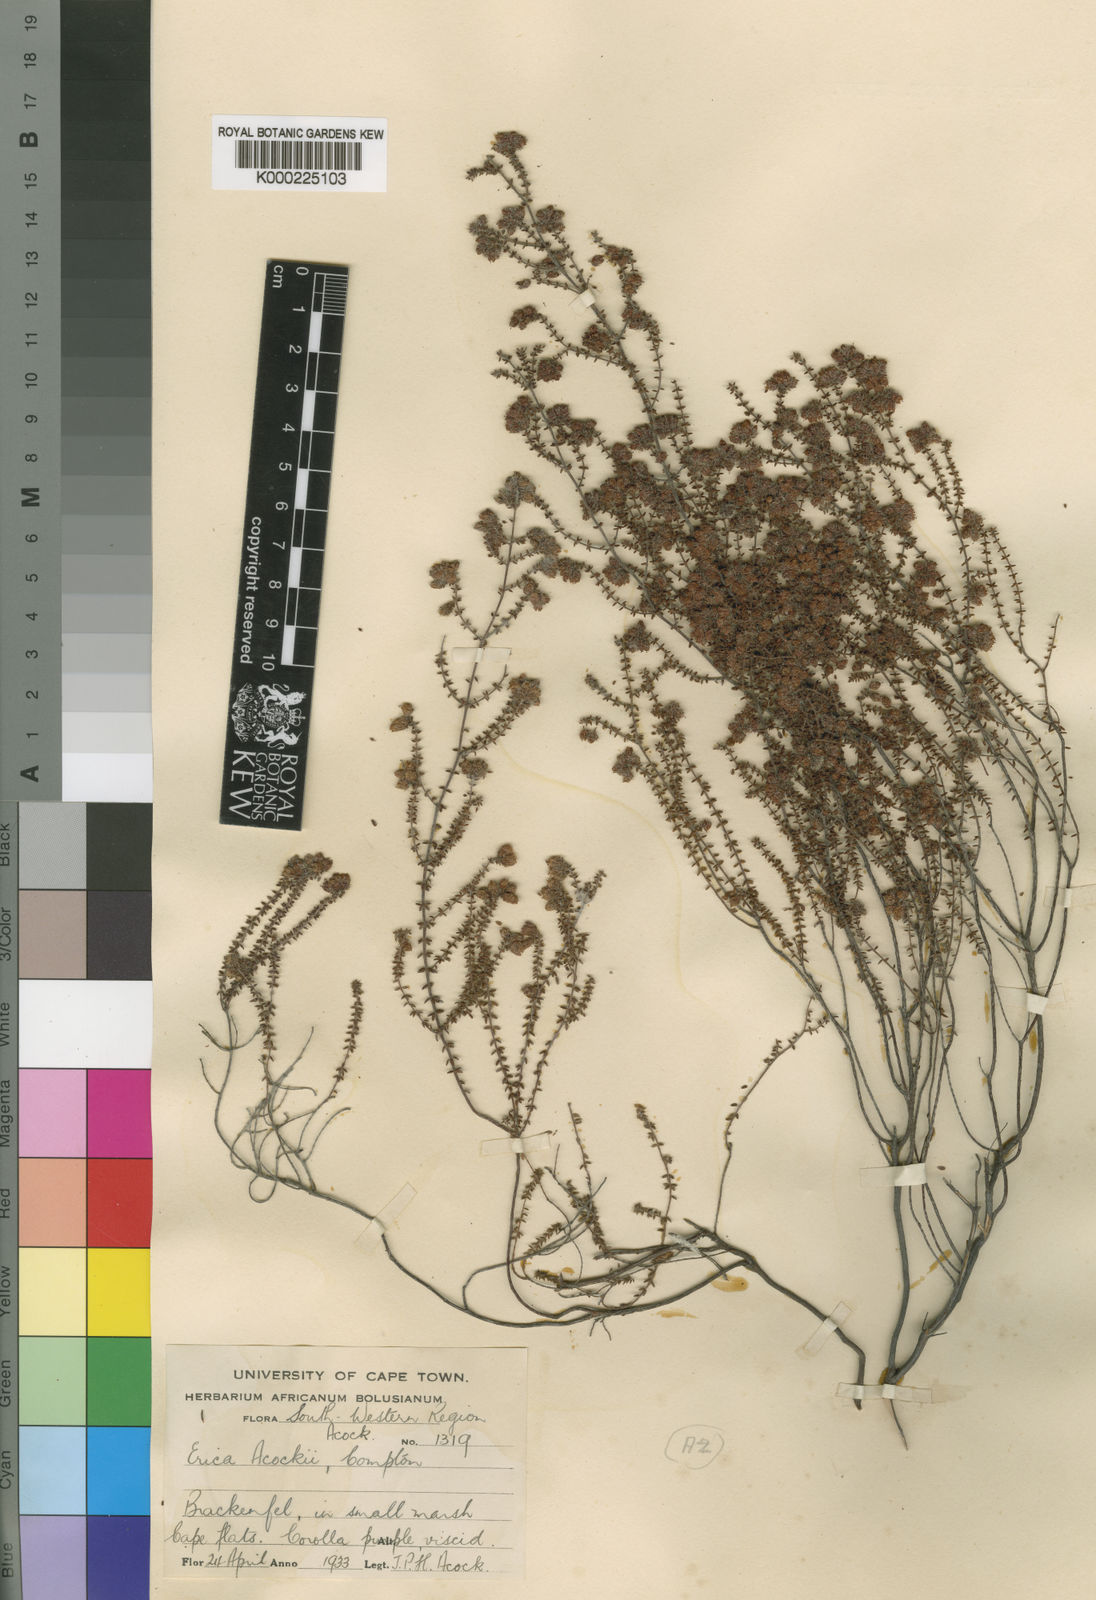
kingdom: Plantae
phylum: Tracheophyta
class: Magnoliopsida
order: Ericales
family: Ericaceae
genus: Erica
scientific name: Erica alexandri
